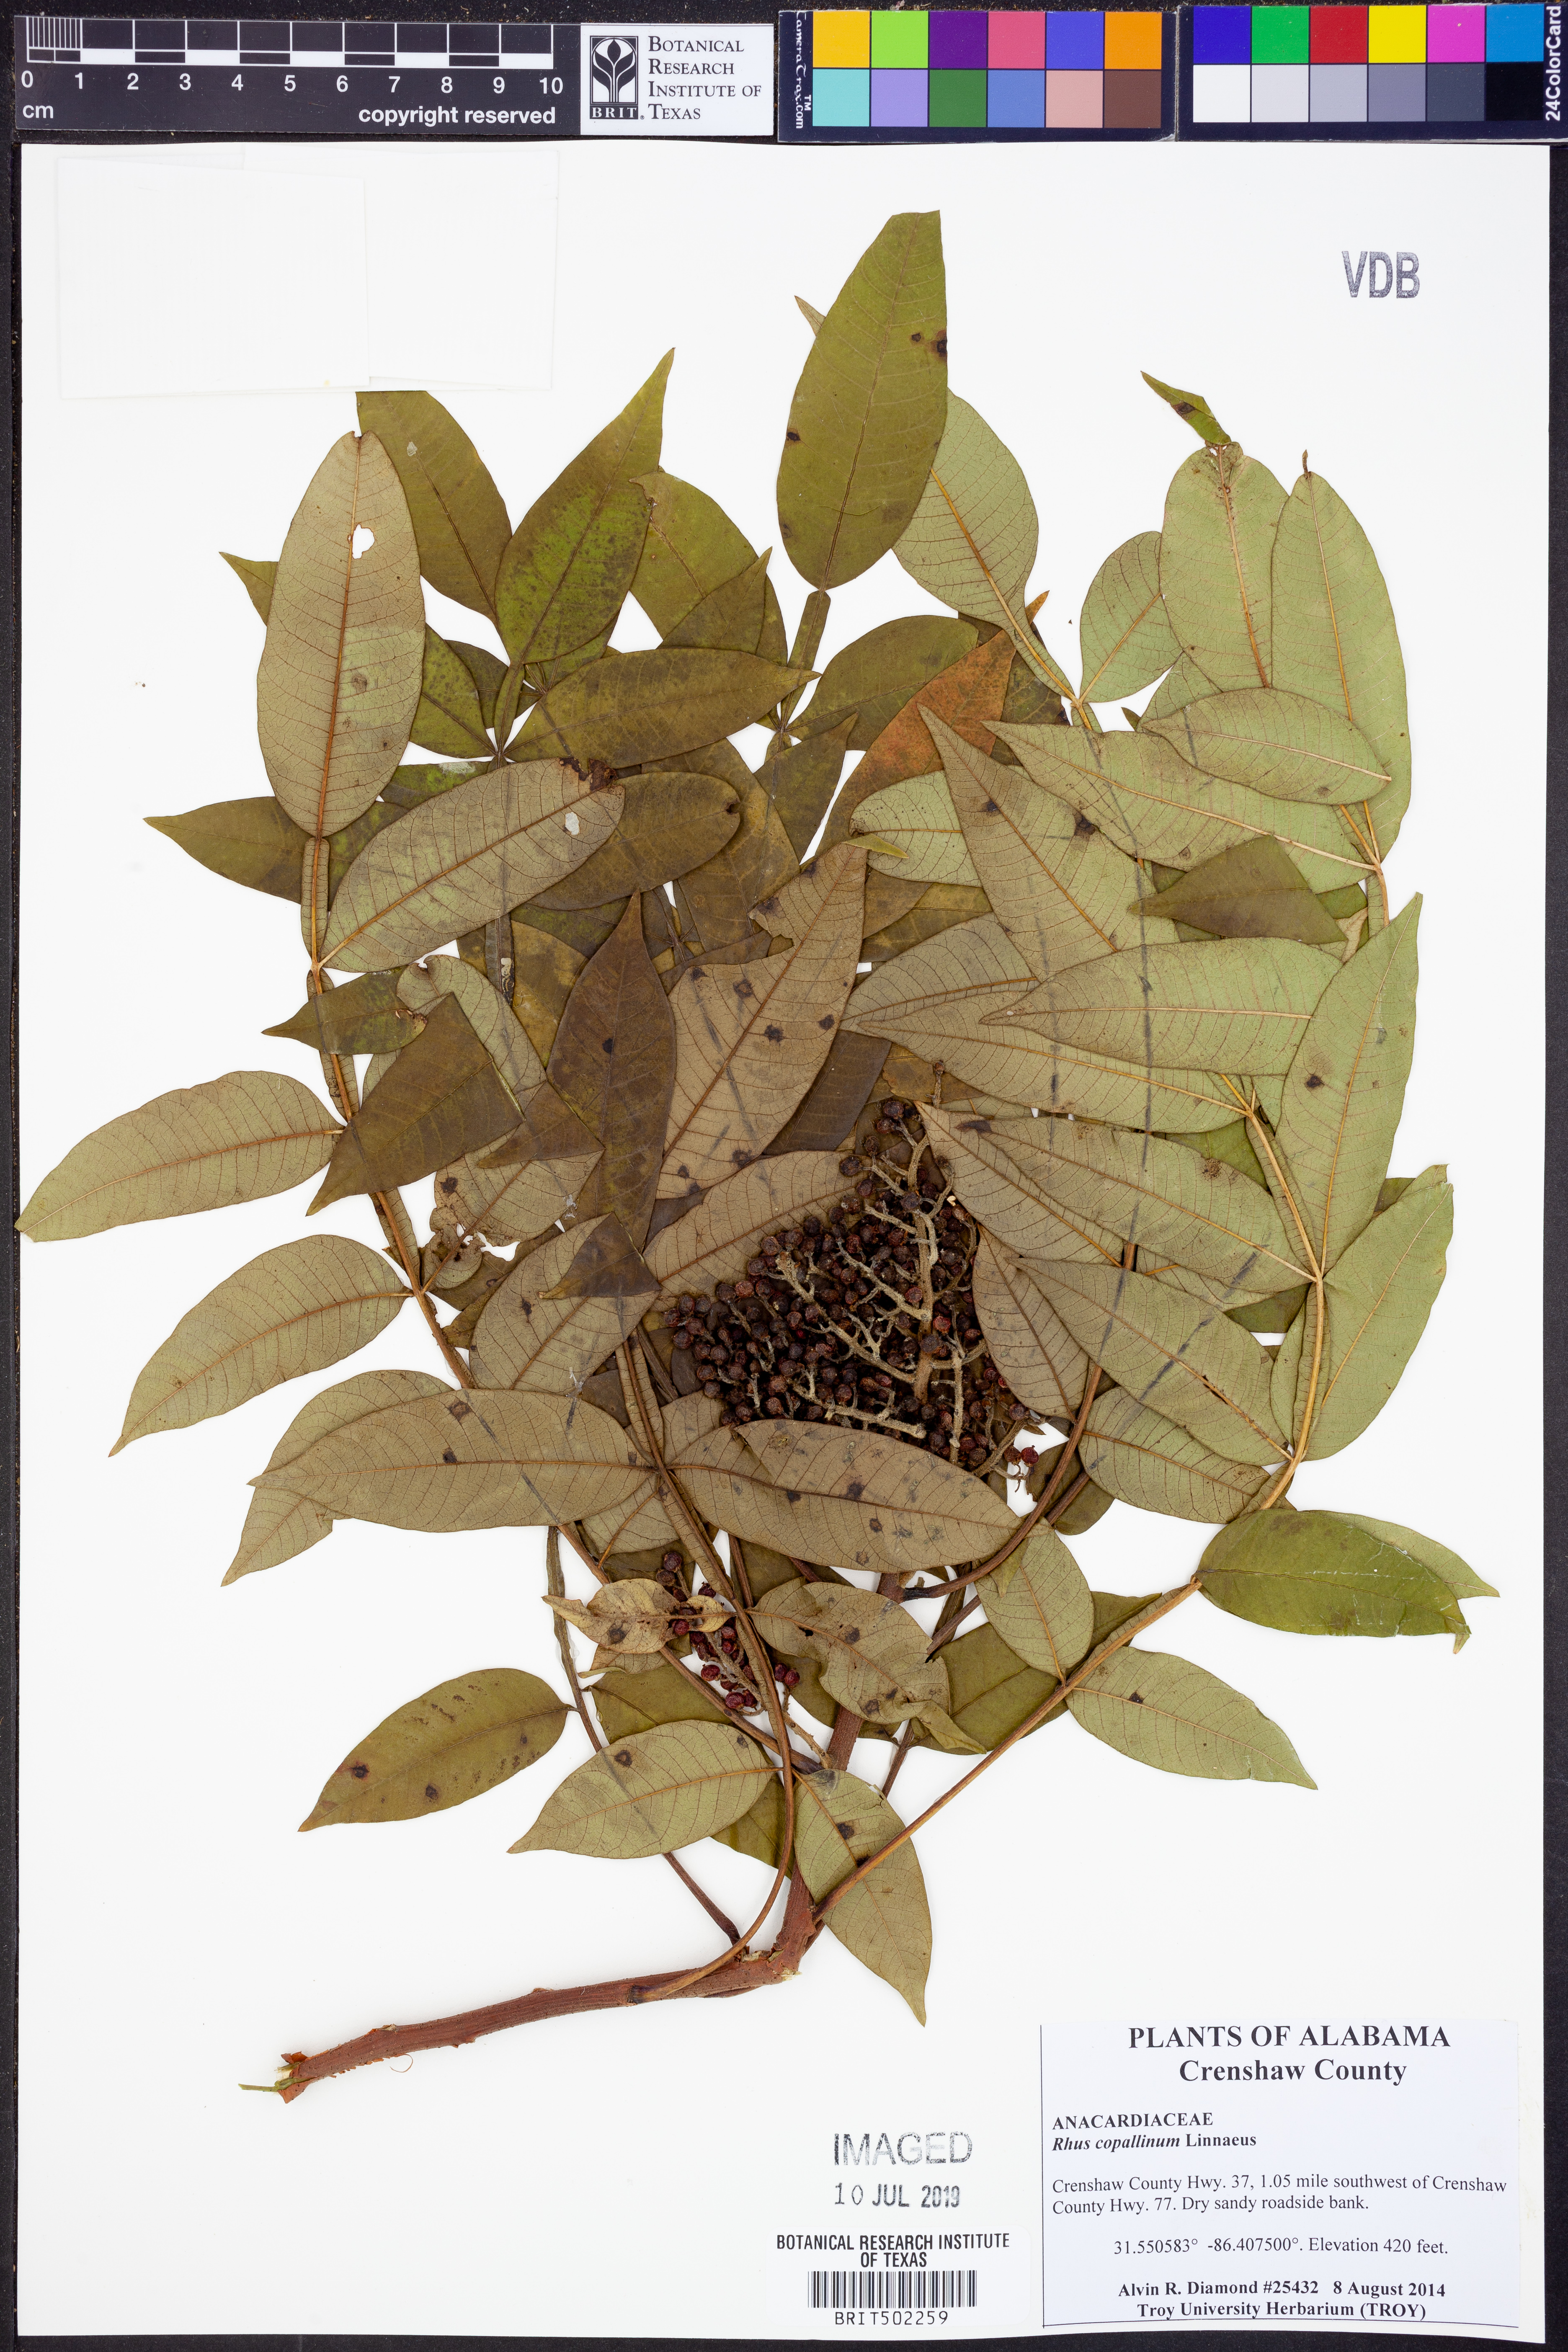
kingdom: Plantae
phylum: Tracheophyta
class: Magnoliopsida
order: Sapindales
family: Anacardiaceae
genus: Rhus
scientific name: Rhus copallina
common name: Shining sumac
